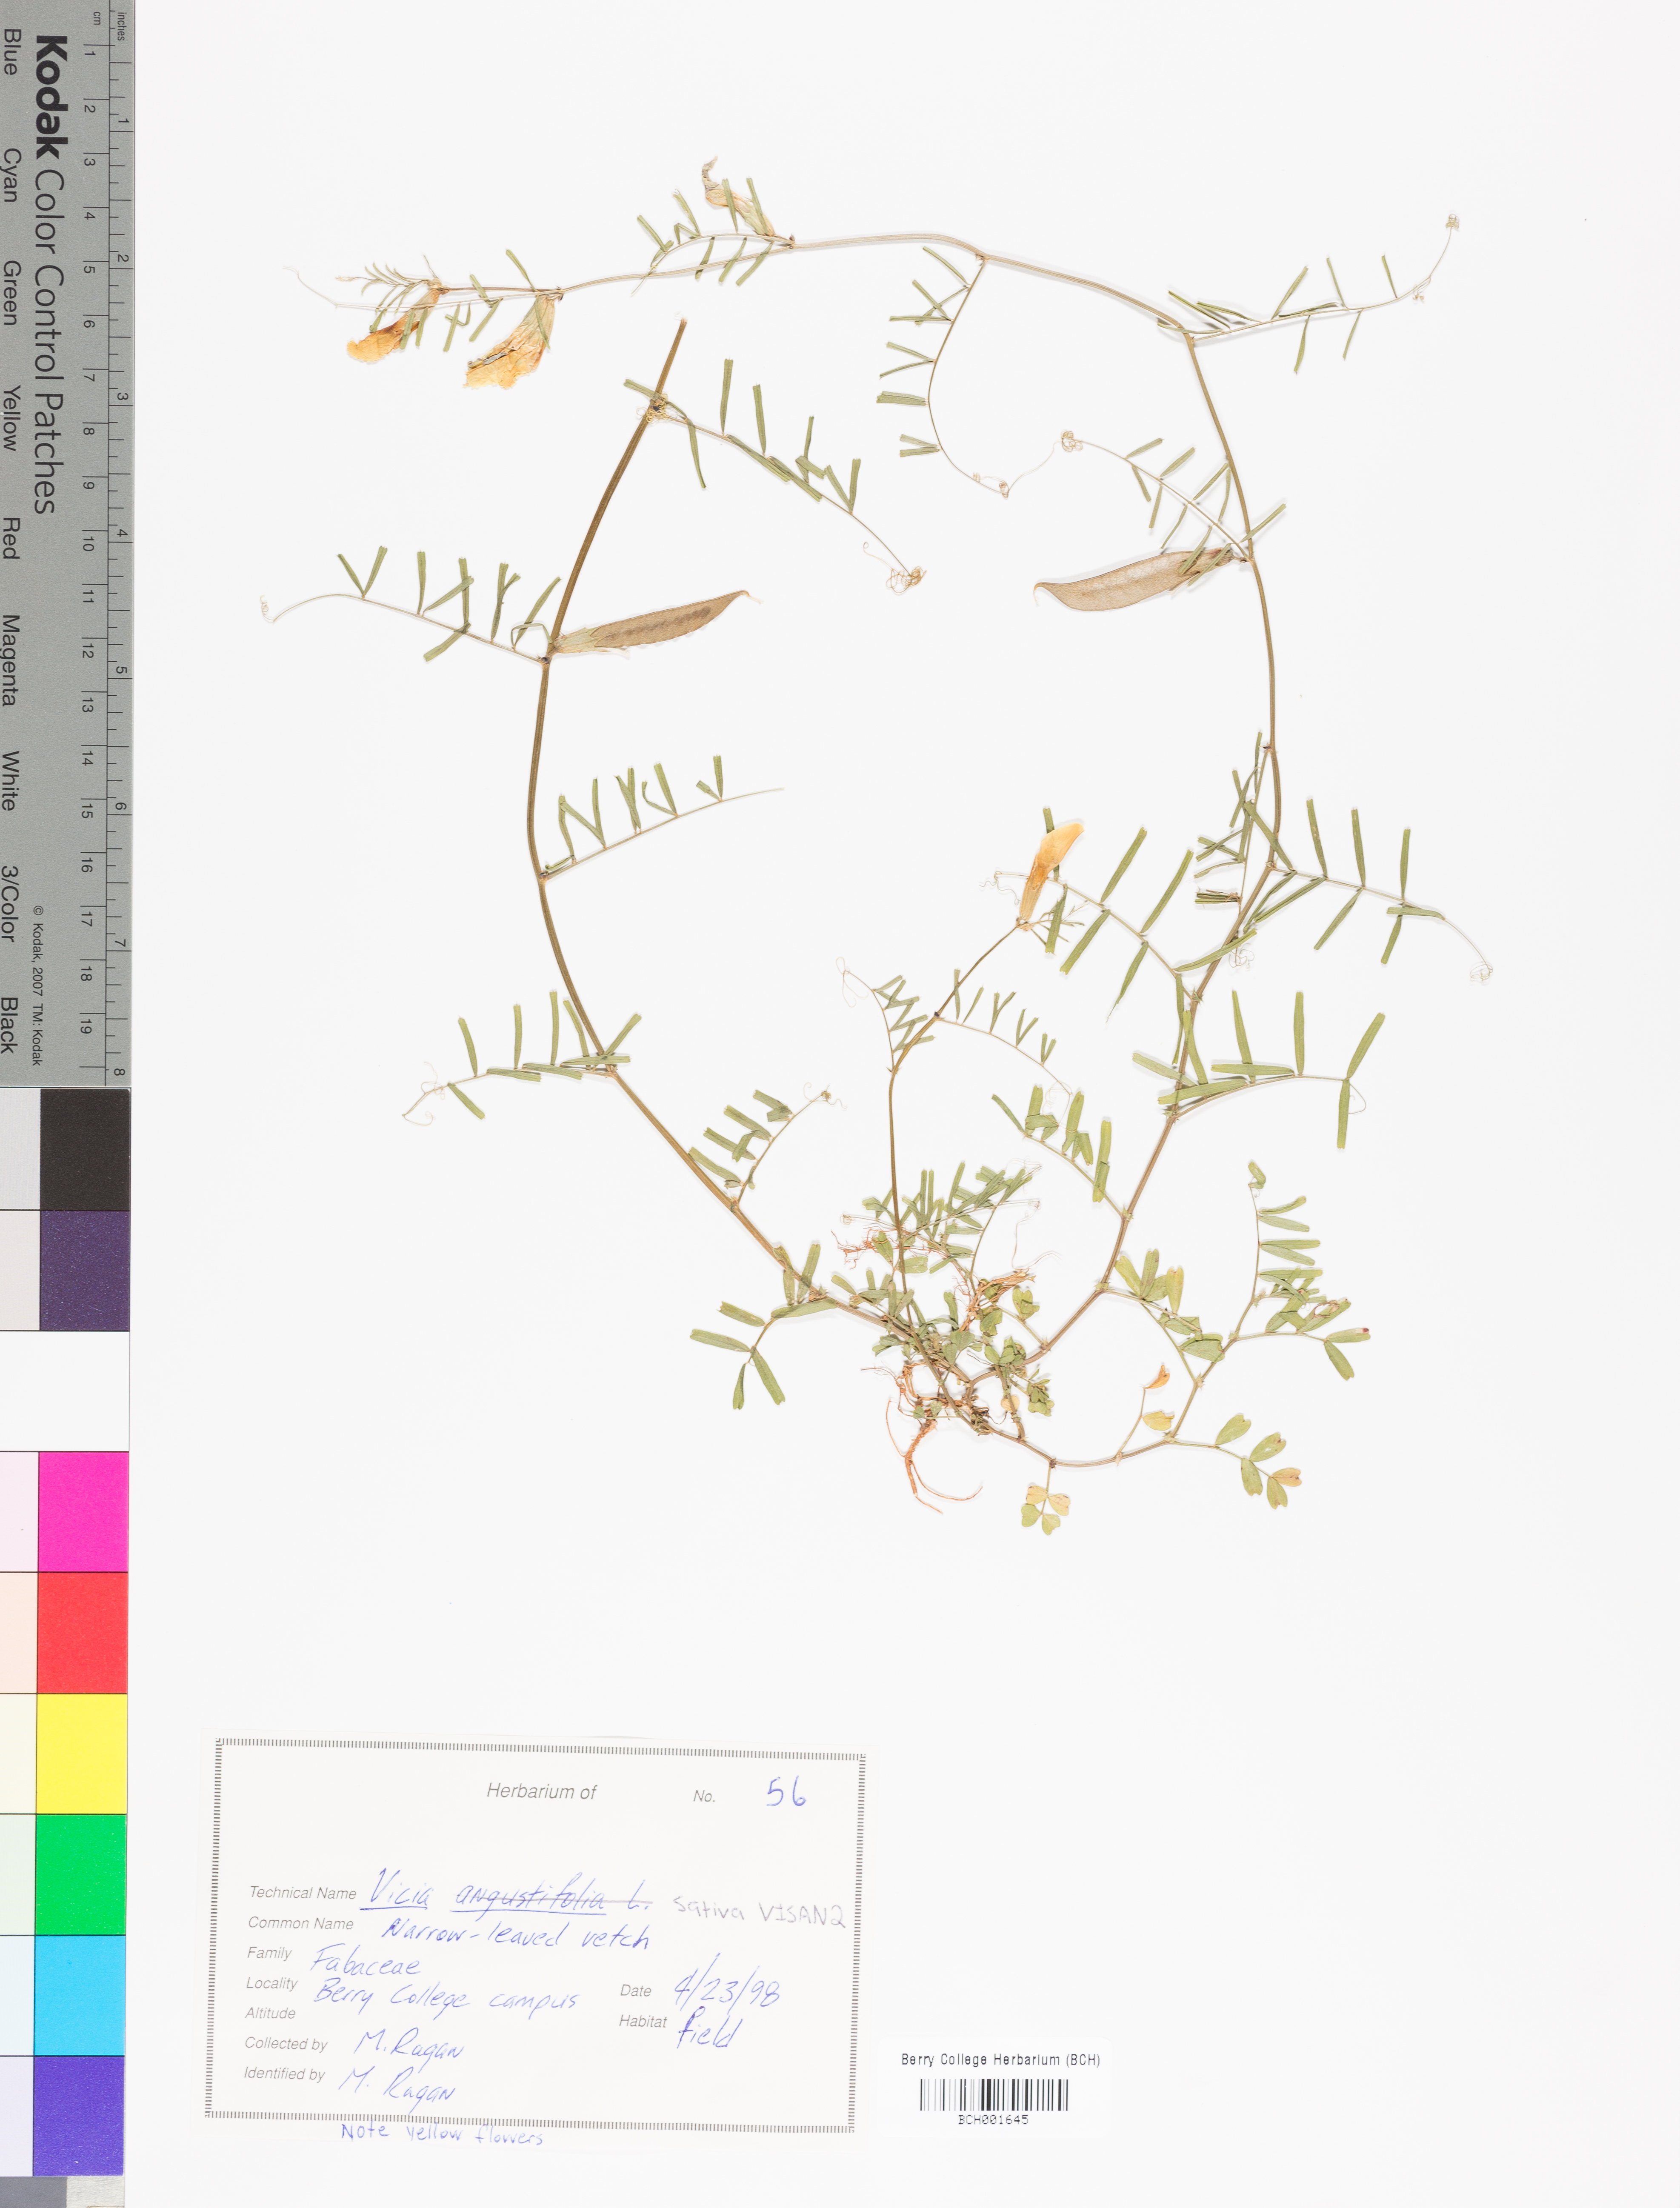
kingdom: Plantae
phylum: Tracheophyta
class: Magnoliopsida
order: Fabales
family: Fabaceae
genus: Vicia
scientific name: Vicia sativa
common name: Garden vetch
